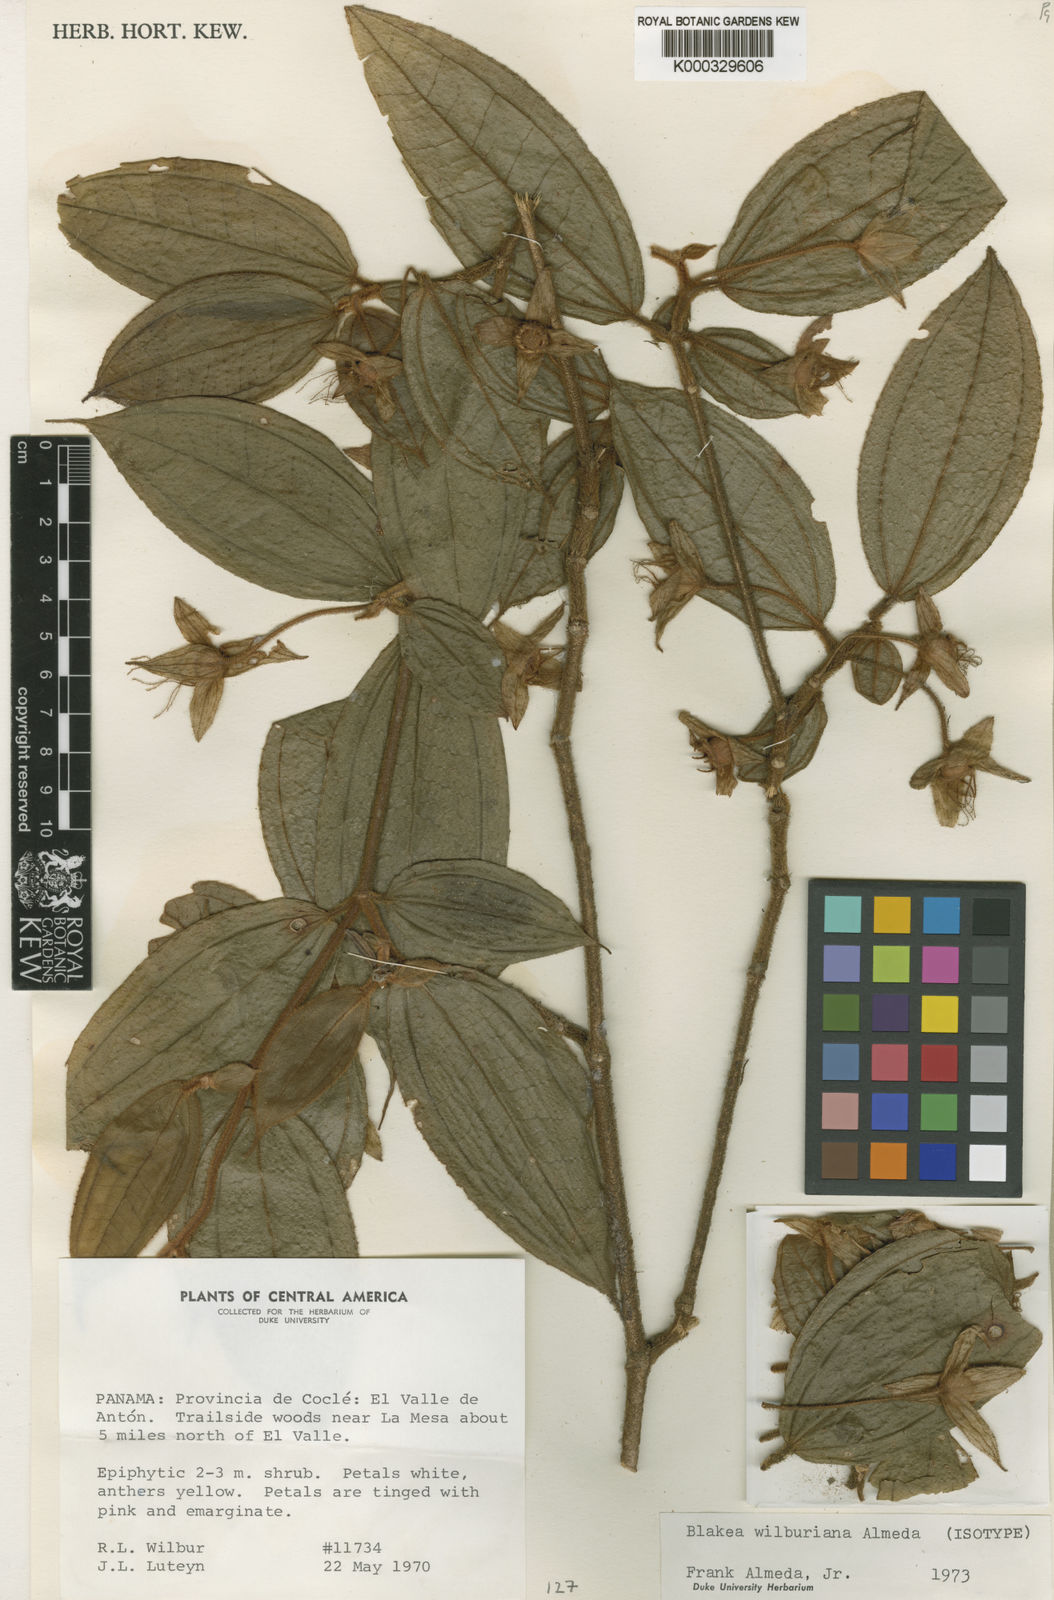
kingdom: Plantae
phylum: Tracheophyta
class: Magnoliopsida
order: Myrtales
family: Melastomataceae
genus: Blakea
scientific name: Blakea wilburiana
